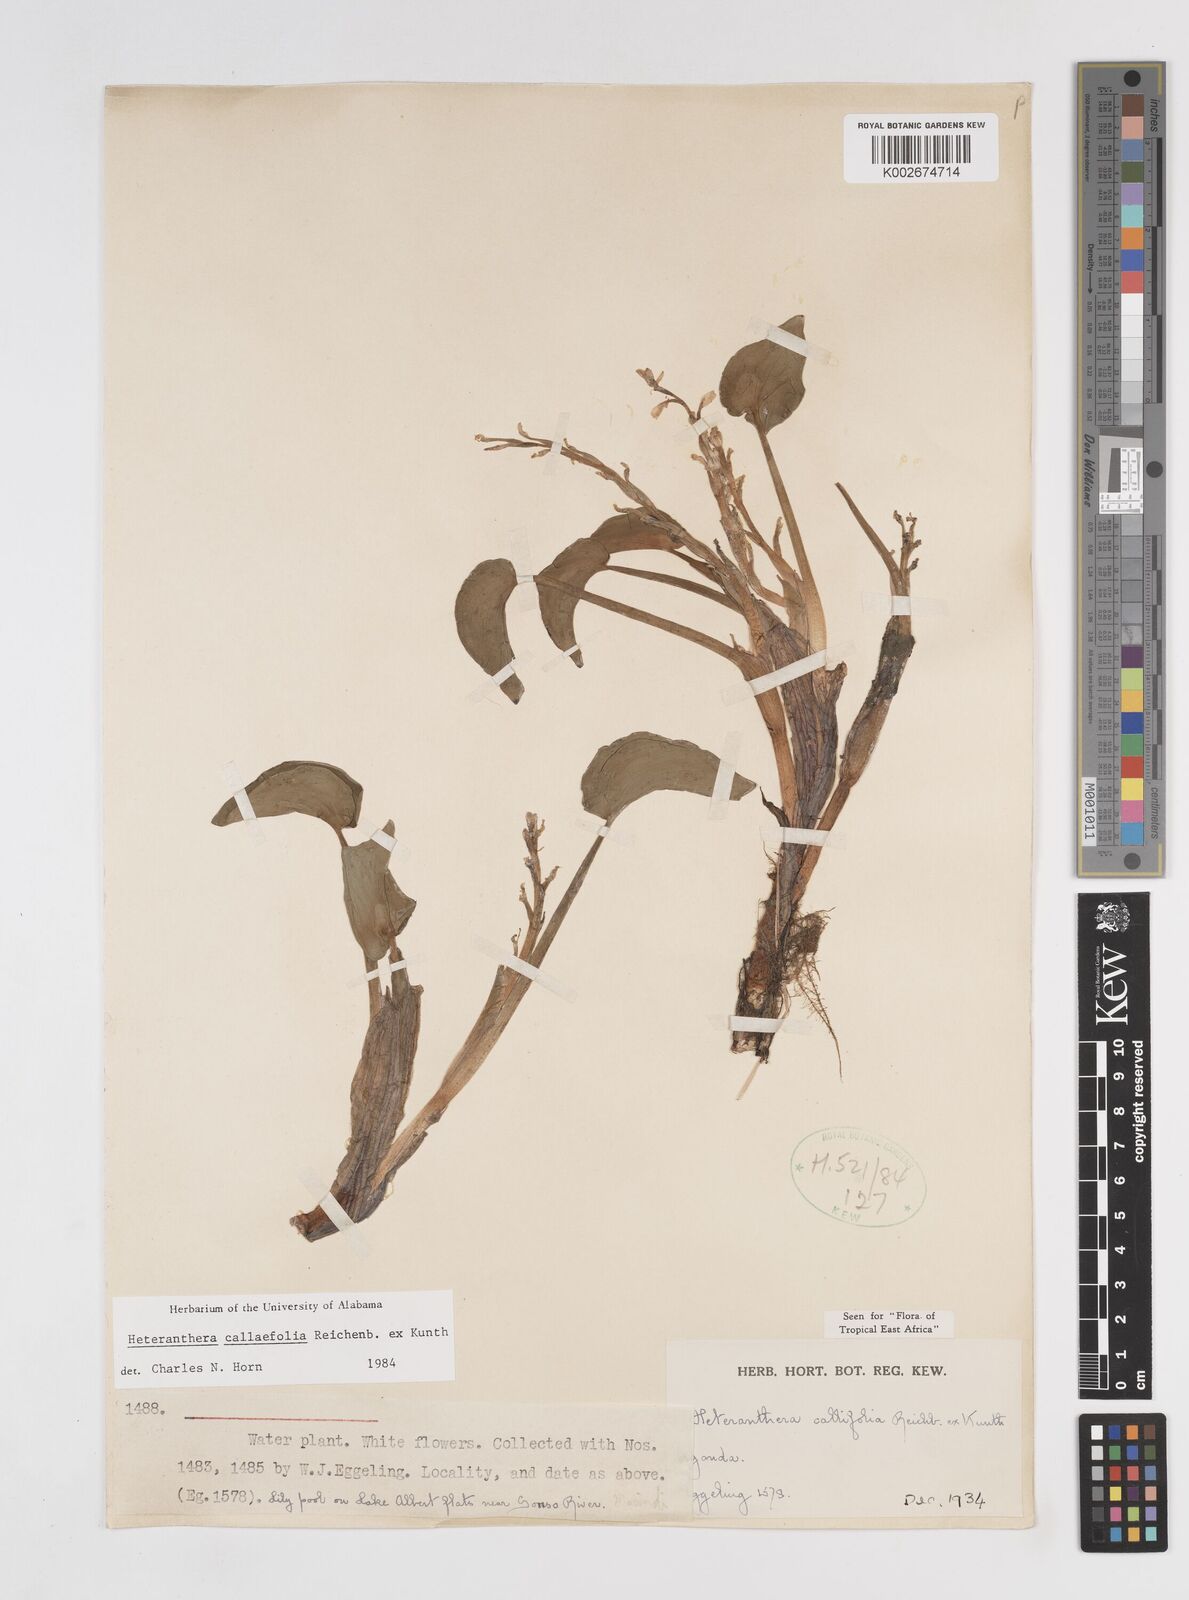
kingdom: Plantae
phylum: Tracheophyta
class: Liliopsida
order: Commelinales
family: Pontederiaceae
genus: Heteranthera
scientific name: Heteranthera callifolia
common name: Mud plantain
